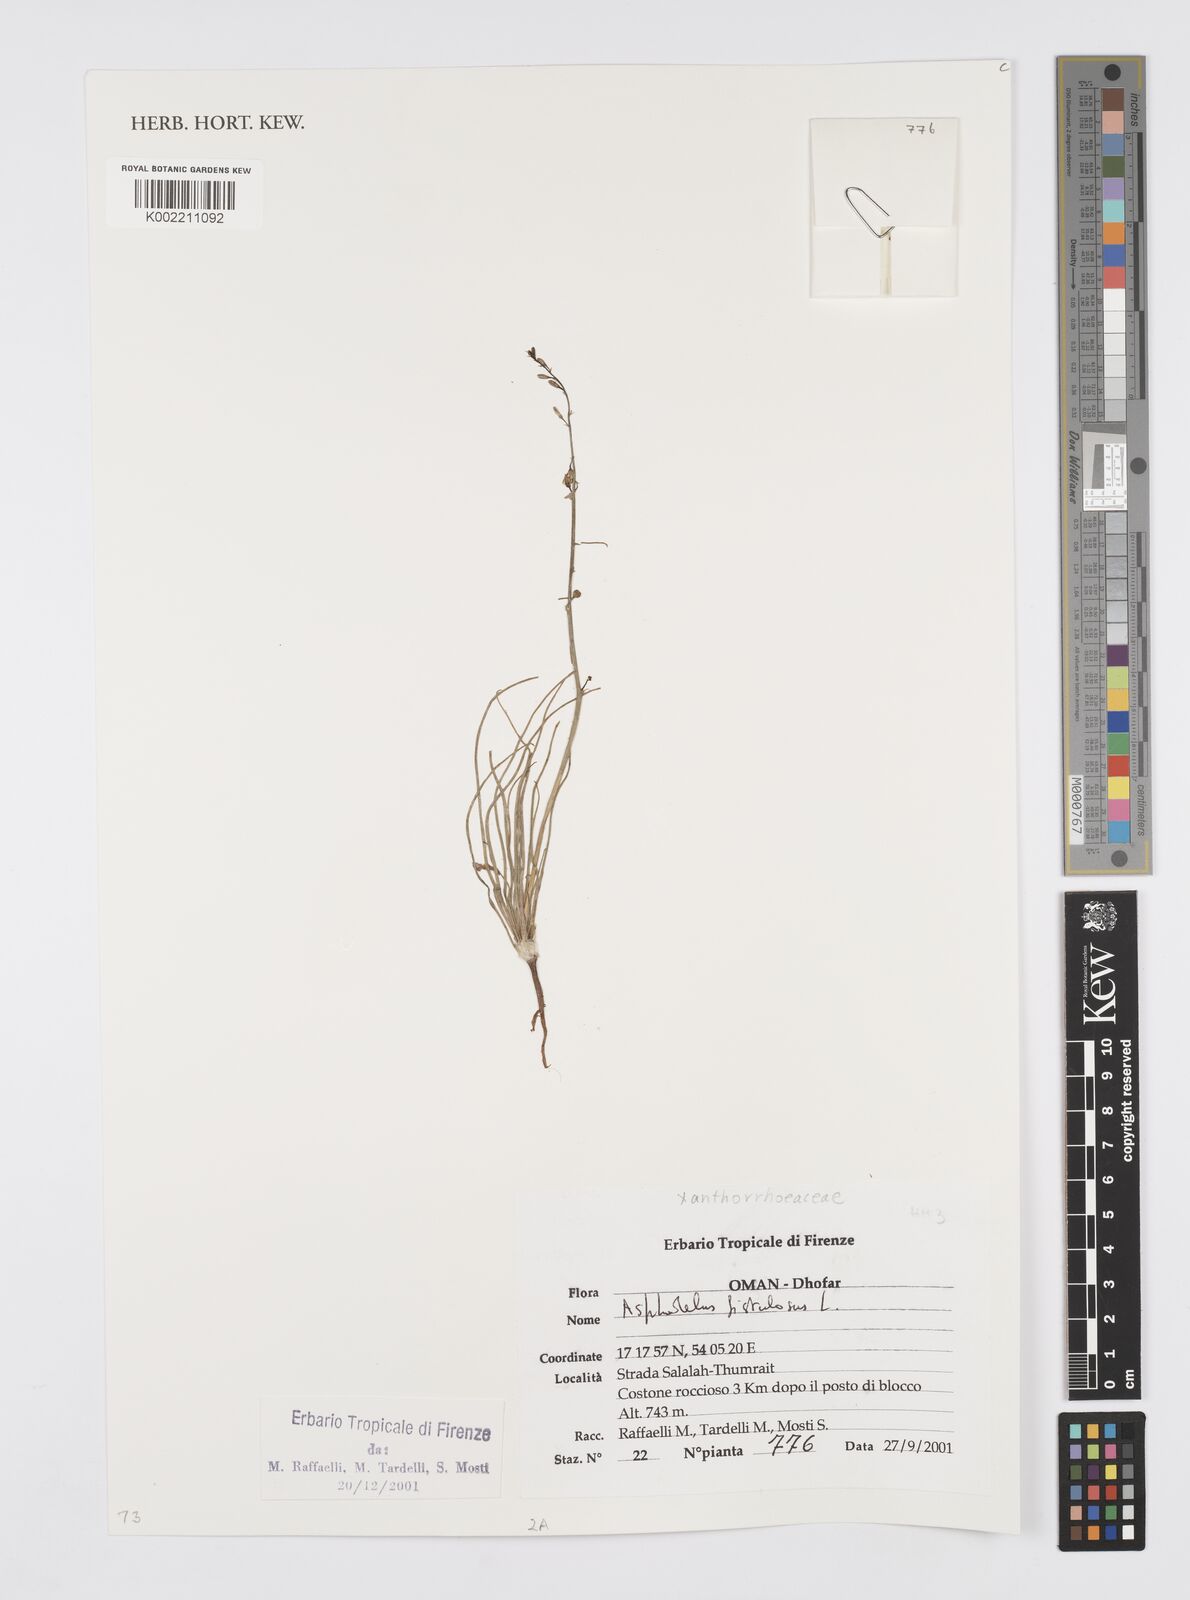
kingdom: Plantae
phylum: Tracheophyta
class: Liliopsida
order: Asparagales
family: Asphodelaceae
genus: Asphodelus
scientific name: Asphodelus fistulosus
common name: Onionweed
